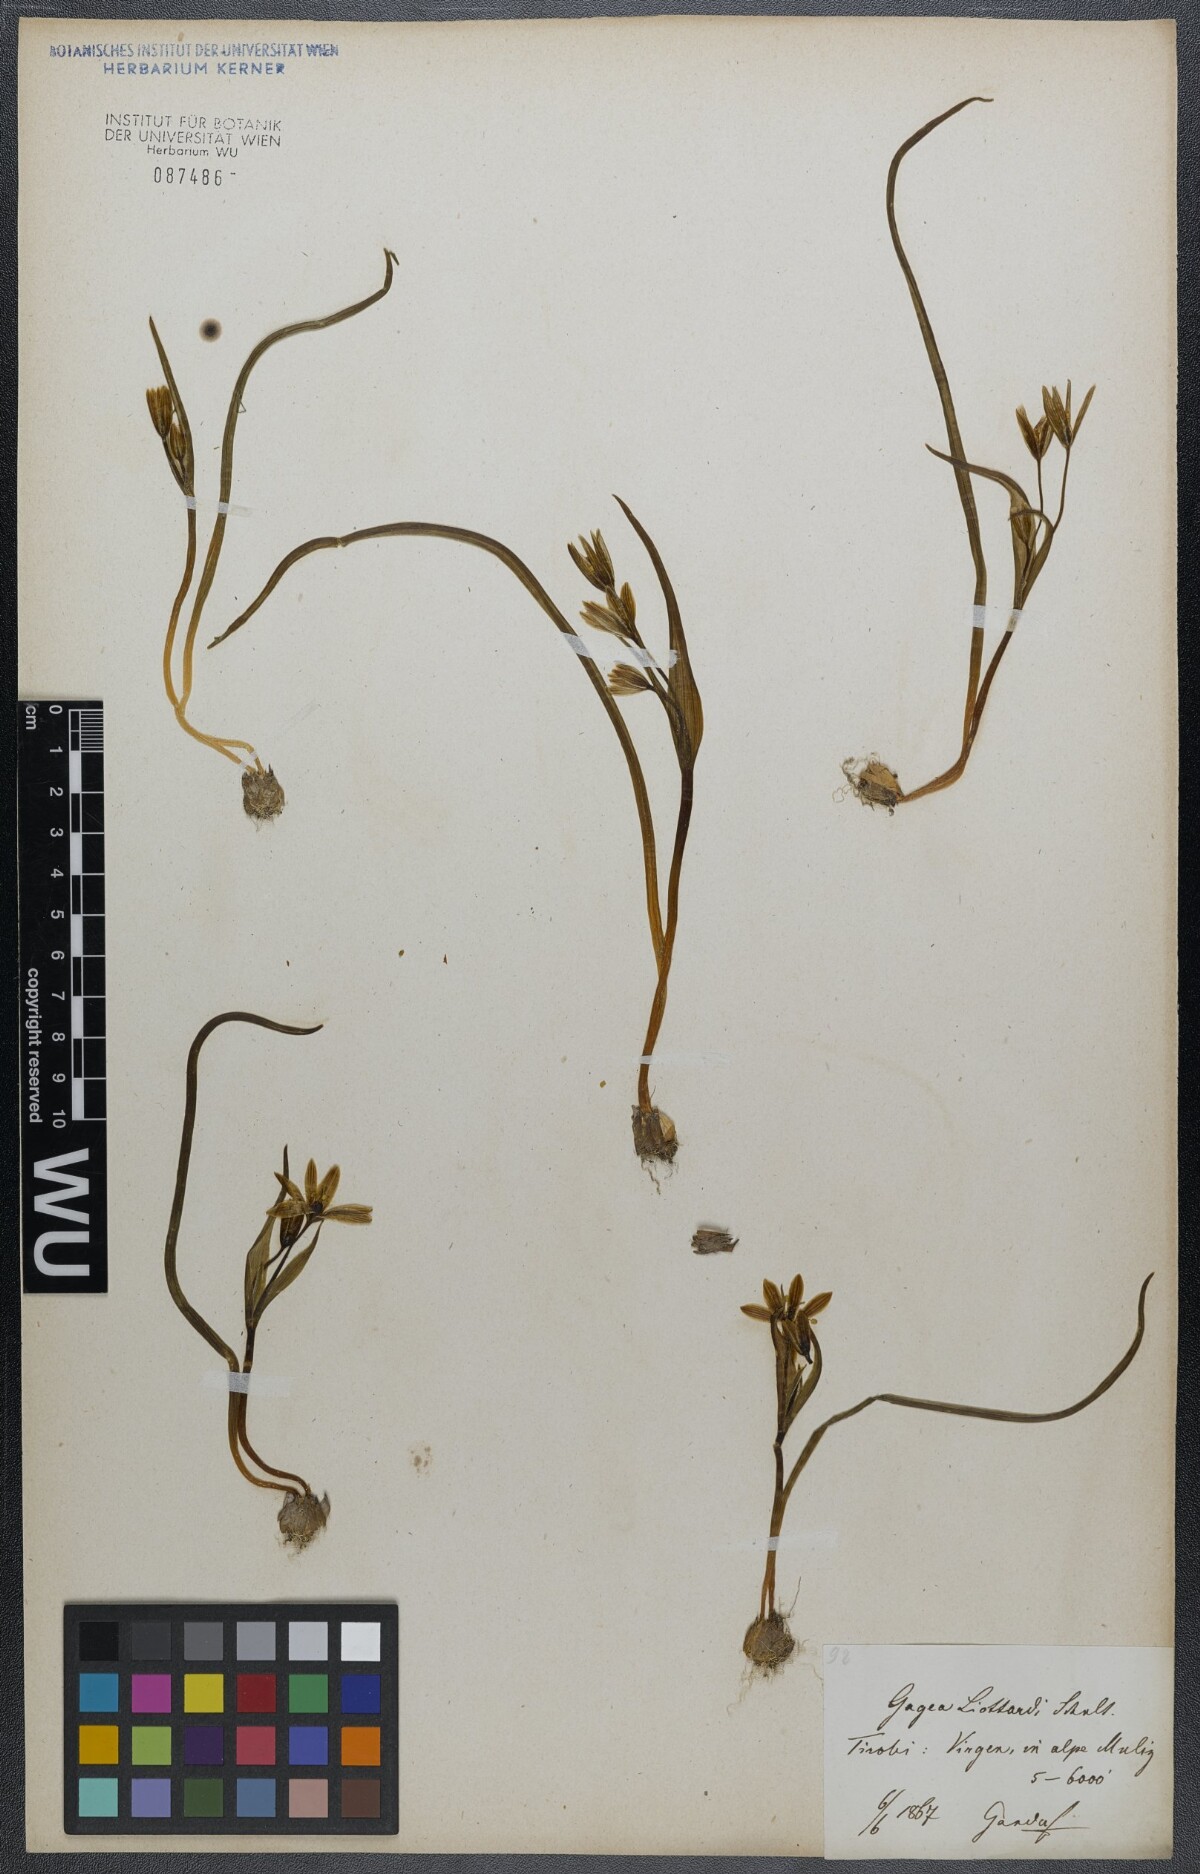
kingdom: Plantae
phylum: Tracheophyta
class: Liliopsida
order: Liliales
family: Liliaceae
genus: Gagea
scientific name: Gagea fragifera
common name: Lily
